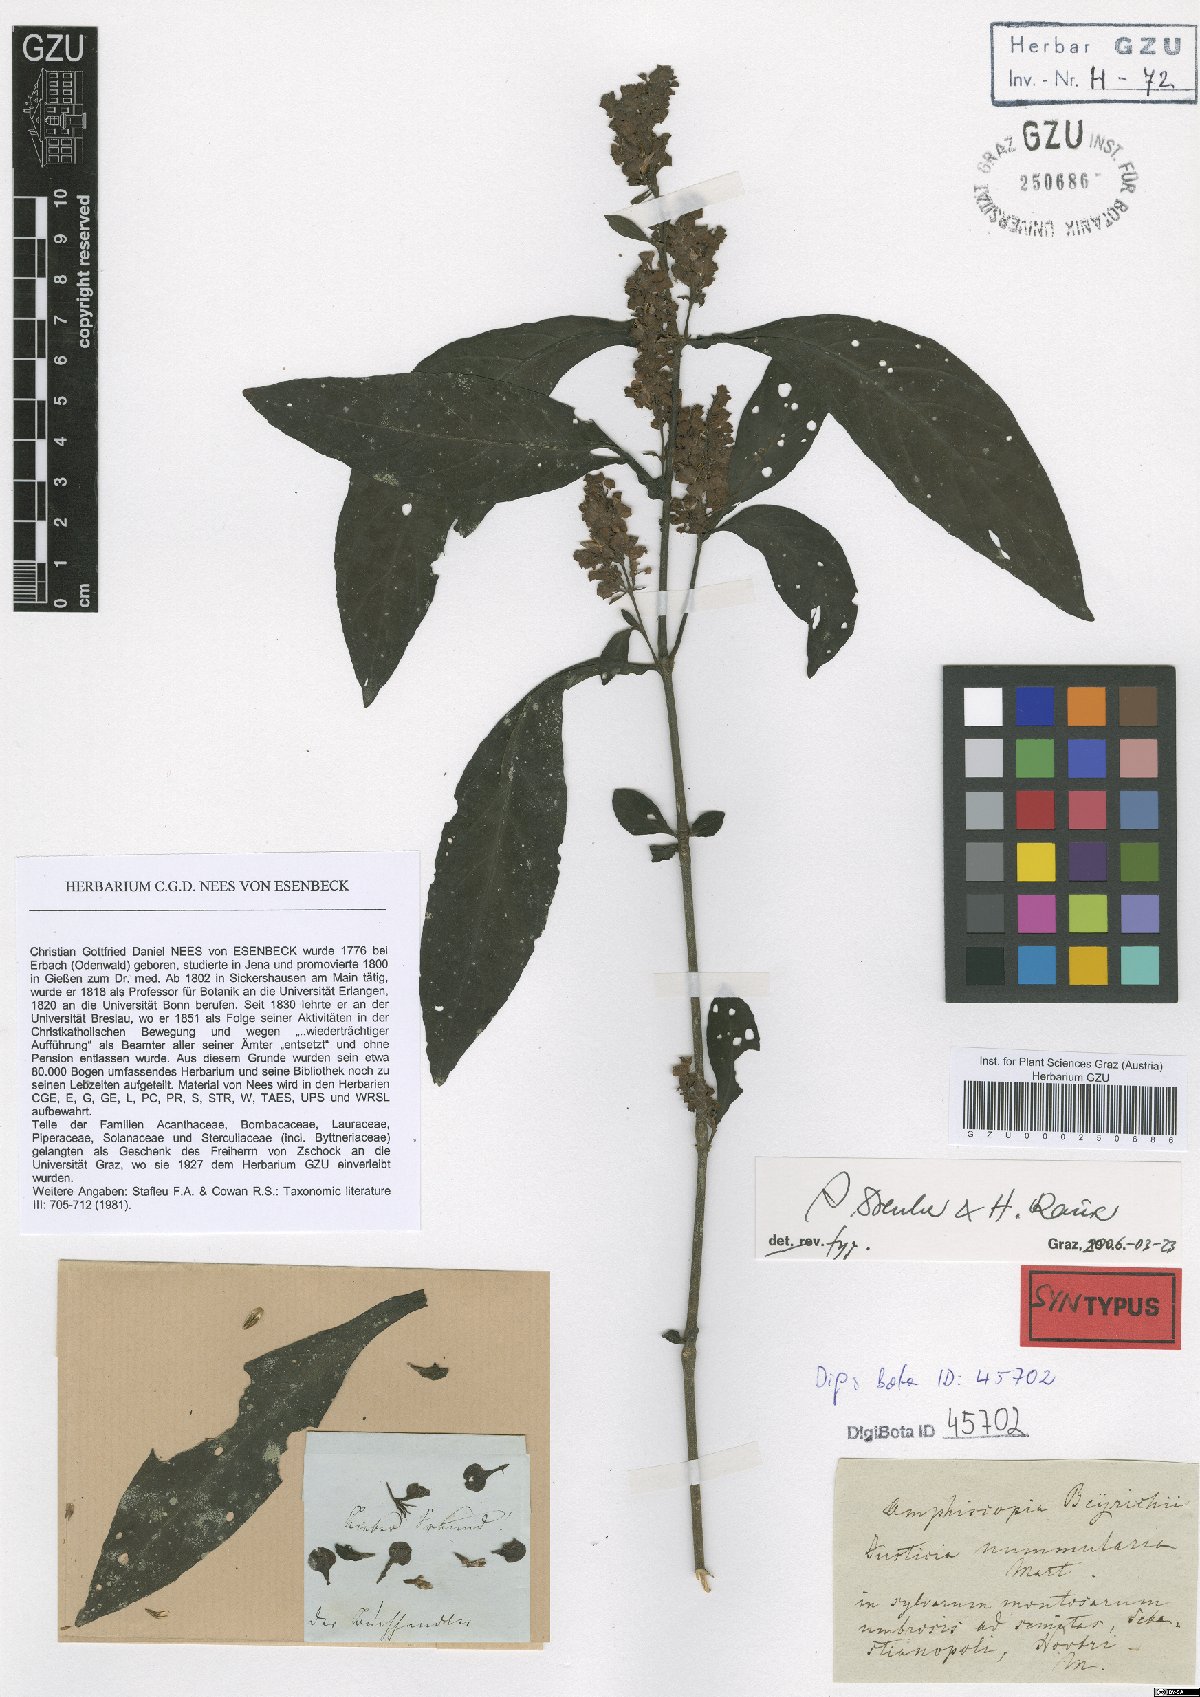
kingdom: Plantae
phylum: Tracheophyta
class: Magnoliopsida
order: Lamiales
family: Acanthaceae
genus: Dianthera
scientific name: Dianthera brasiliensis
